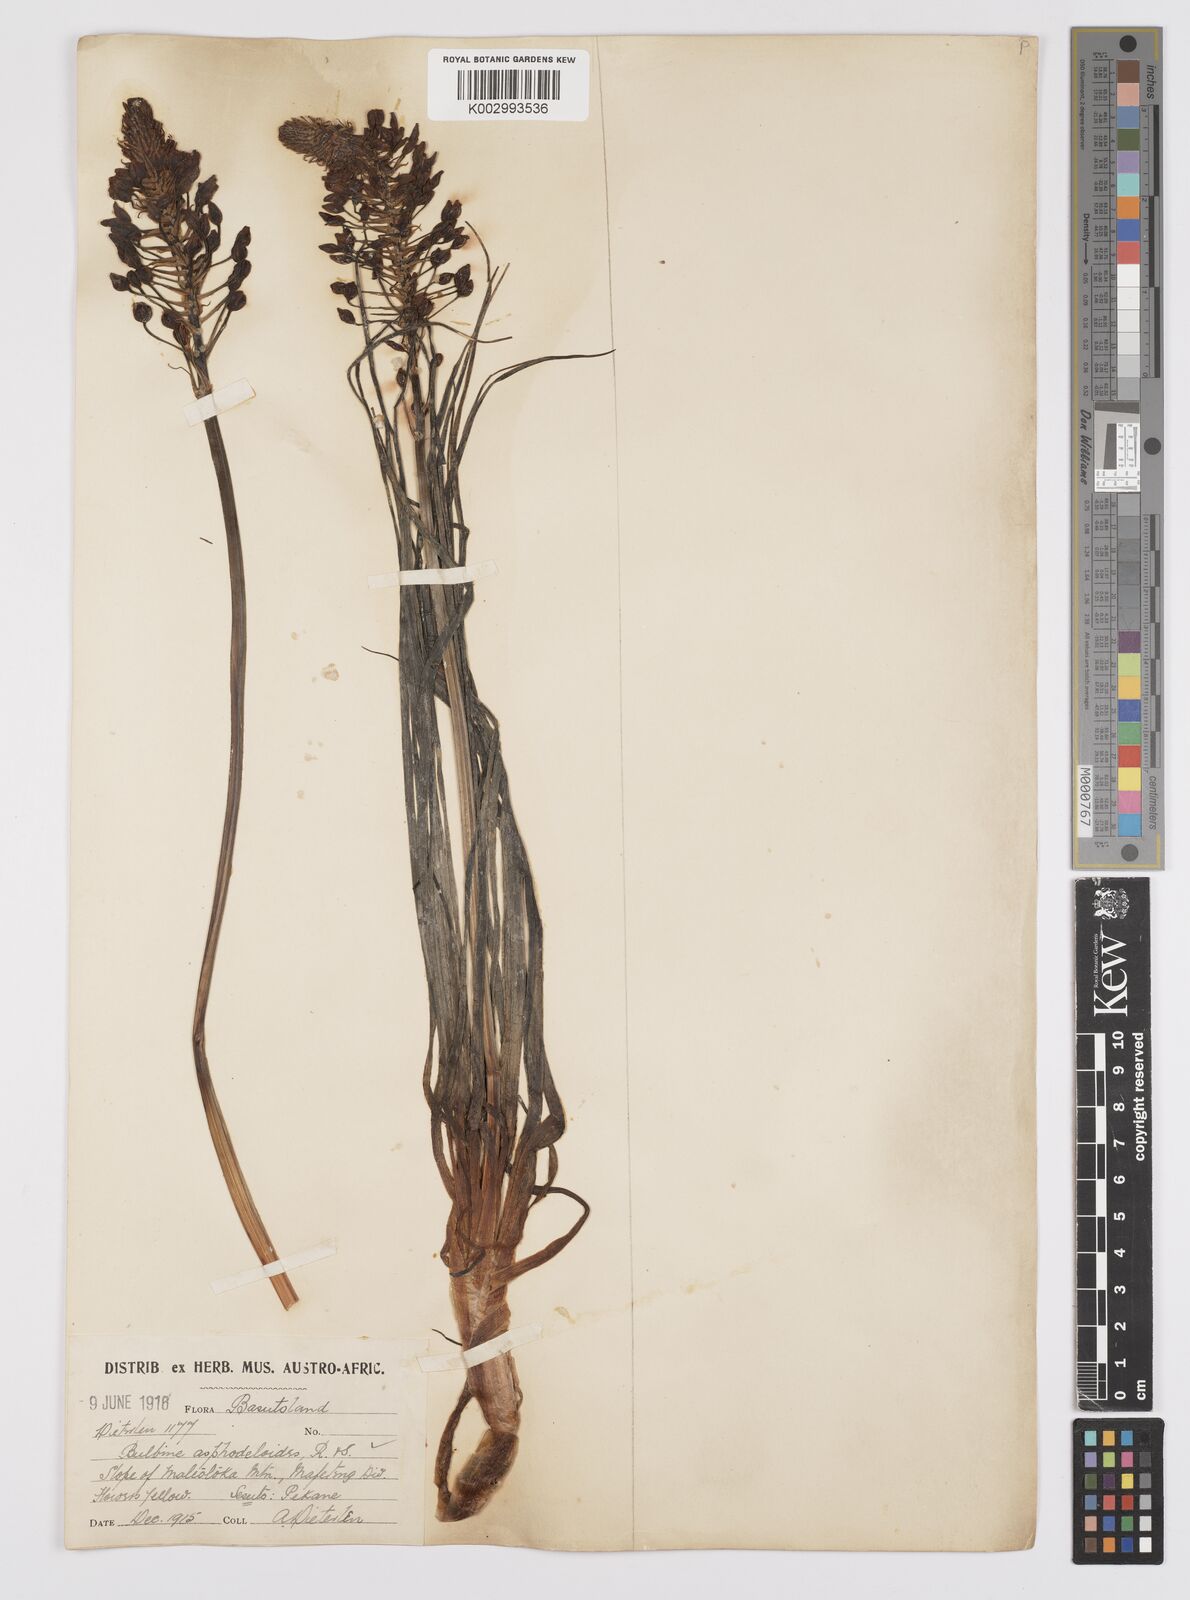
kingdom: Plantae
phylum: Tracheophyta
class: Liliopsida
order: Asparagales
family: Asphodelaceae
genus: Bulbine
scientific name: Bulbine asphodeloides
